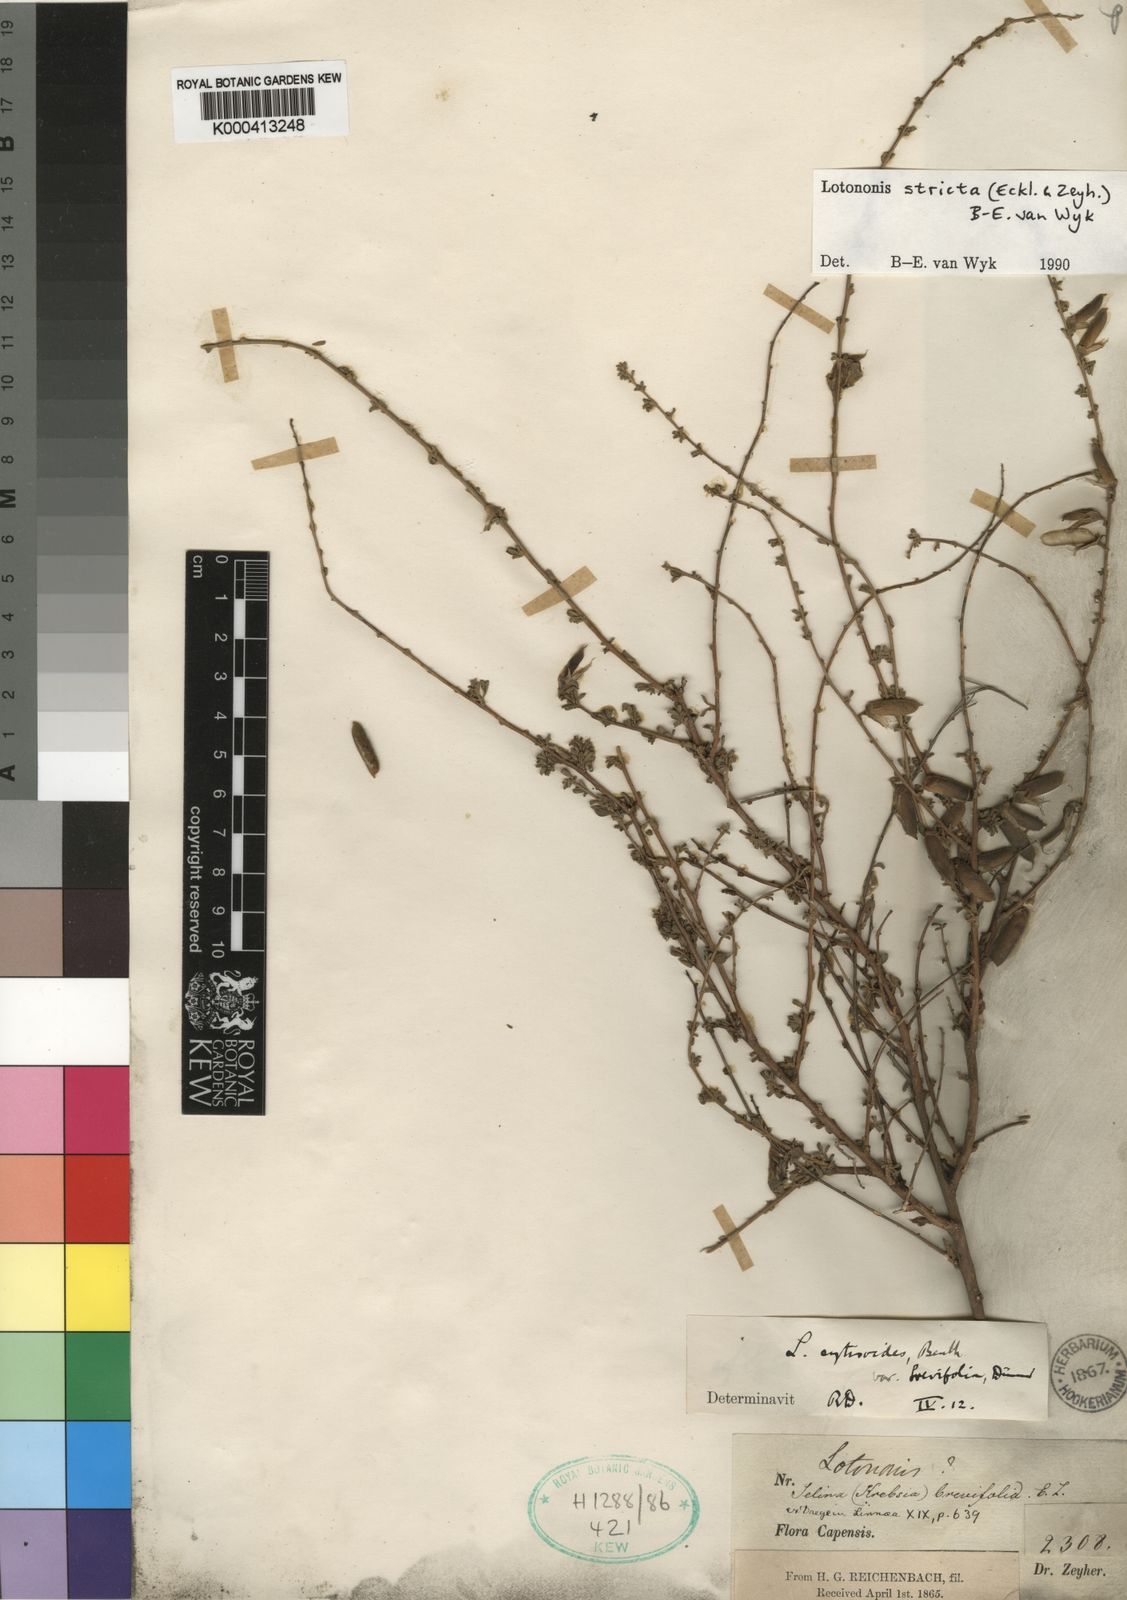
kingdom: Plantae
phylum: Tracheophyta
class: Magnoliopsida
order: Fabales
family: Fabaceae
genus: Lotononis
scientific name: Lotononis stricta
